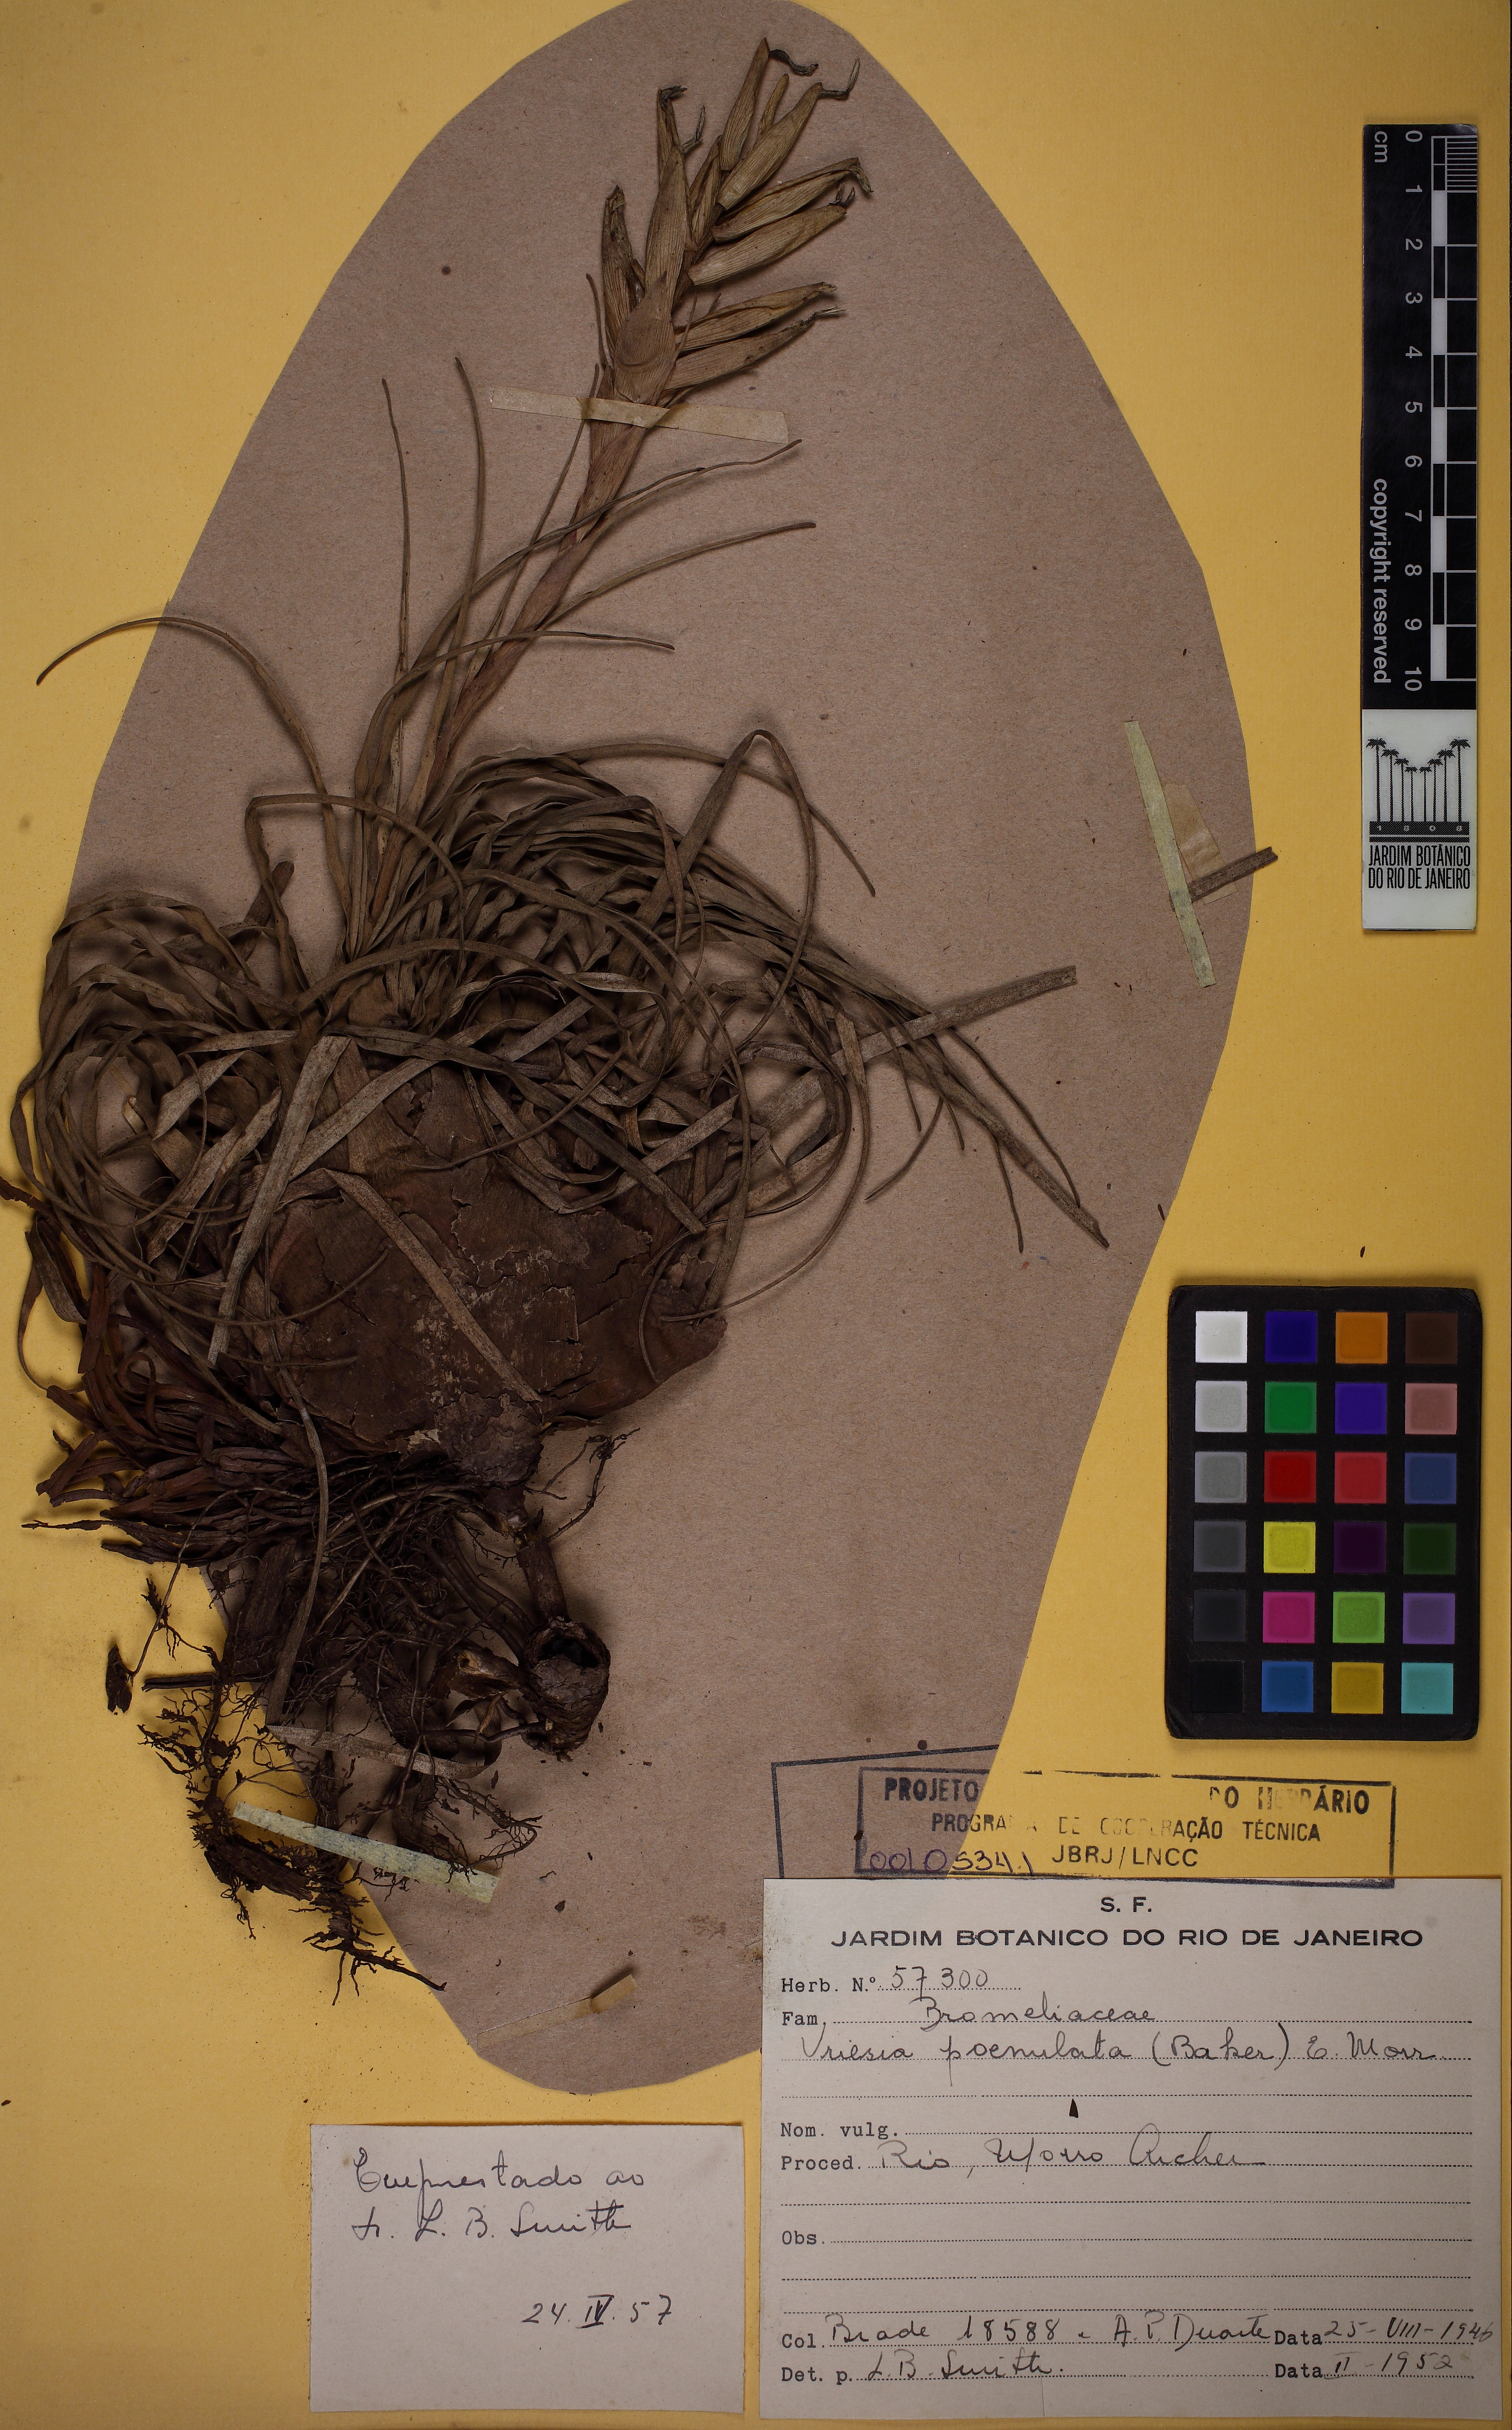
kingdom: Plantae
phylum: Tracheophyta
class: Liliopsida
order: Poales
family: Bromeliaceae
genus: Vriesea
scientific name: Vriesea poenulata
